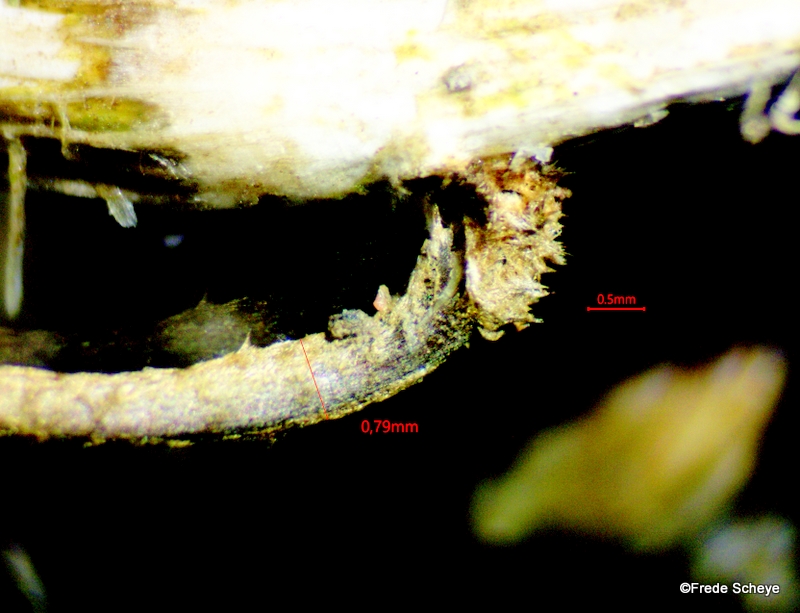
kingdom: Fungi
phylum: Basidiomycota
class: Agaricomycetes
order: Agaricales
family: Marasmiaceae
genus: Crinipellis
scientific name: Crinipellis scabella
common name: børstefod
